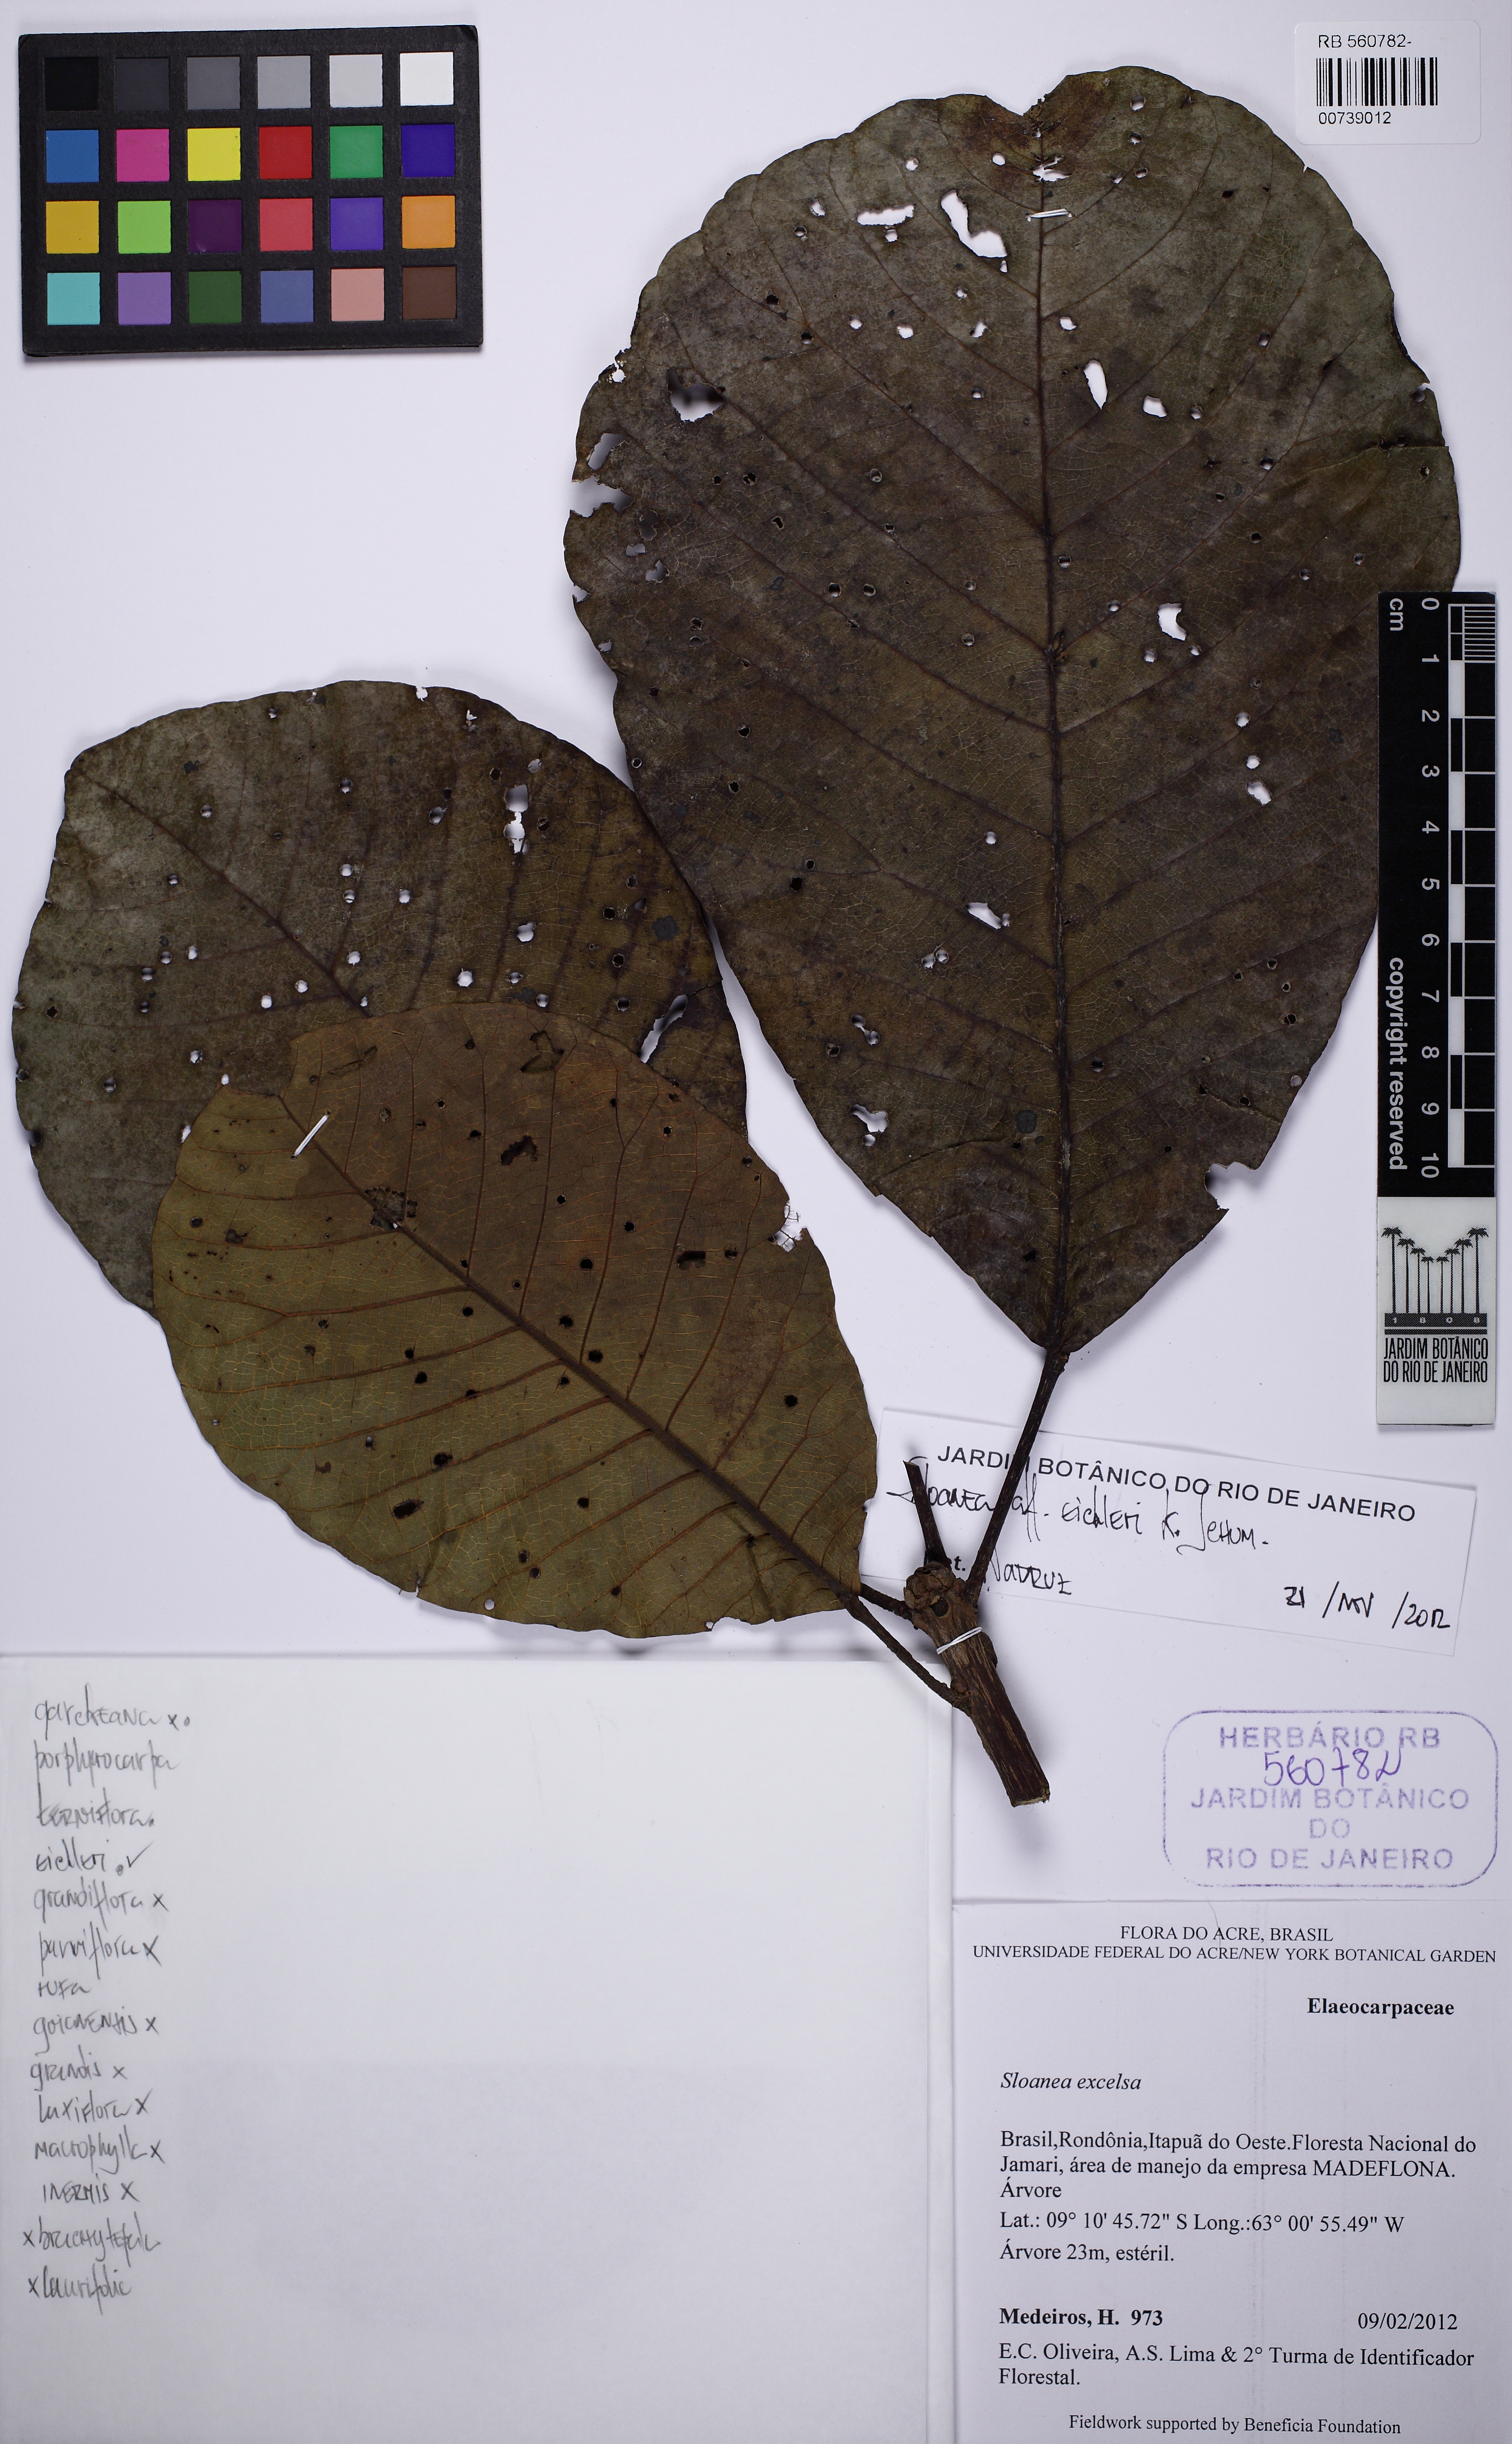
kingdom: Plantae
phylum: Tracheophyta
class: Magnoliopsida
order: Oxalidales
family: Elaeocarpaceae
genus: Sloanea
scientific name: Sloanea eichleri
